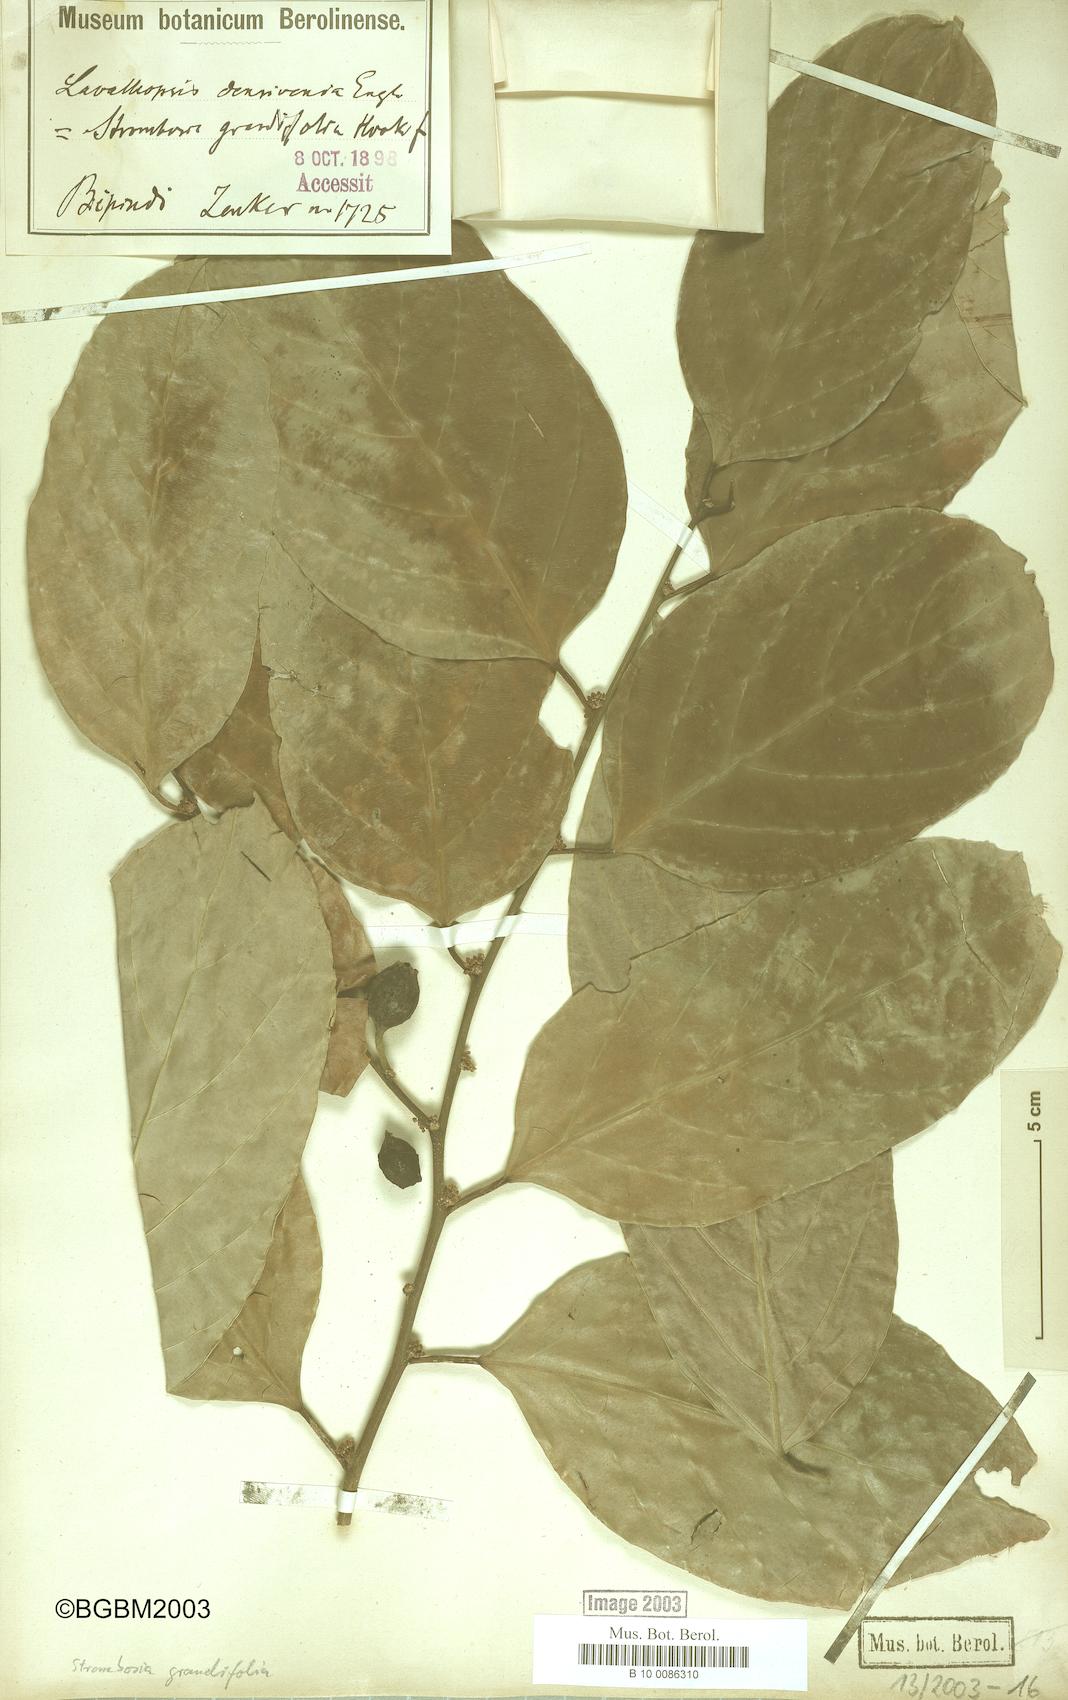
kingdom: Plantae
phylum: Tracheophyta
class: Magnoliopsida
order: Santalales
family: Strombosiaceae
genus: Strombosia
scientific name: Strombosia grandifolia
